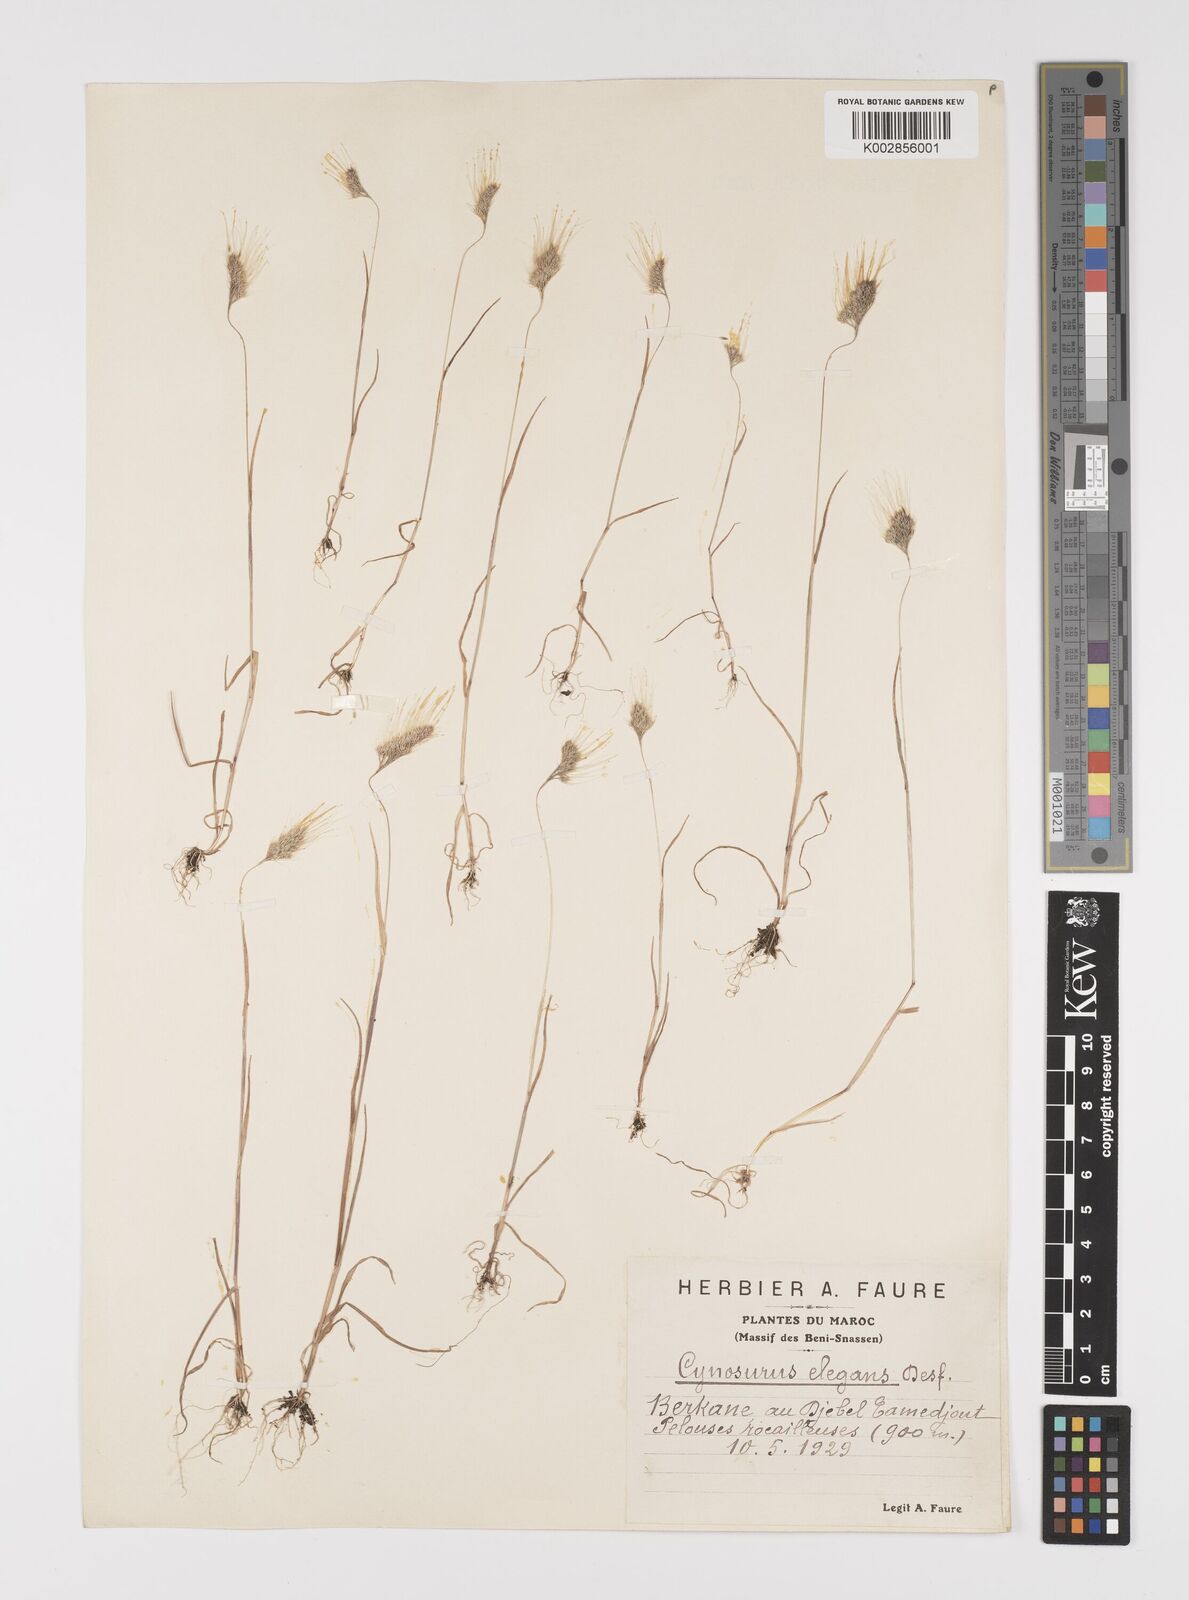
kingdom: Plantae
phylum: Tracheophyta
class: Liliopsida
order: Poales
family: Poaceae
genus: Cynosurus
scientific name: Cynosurus elegans
